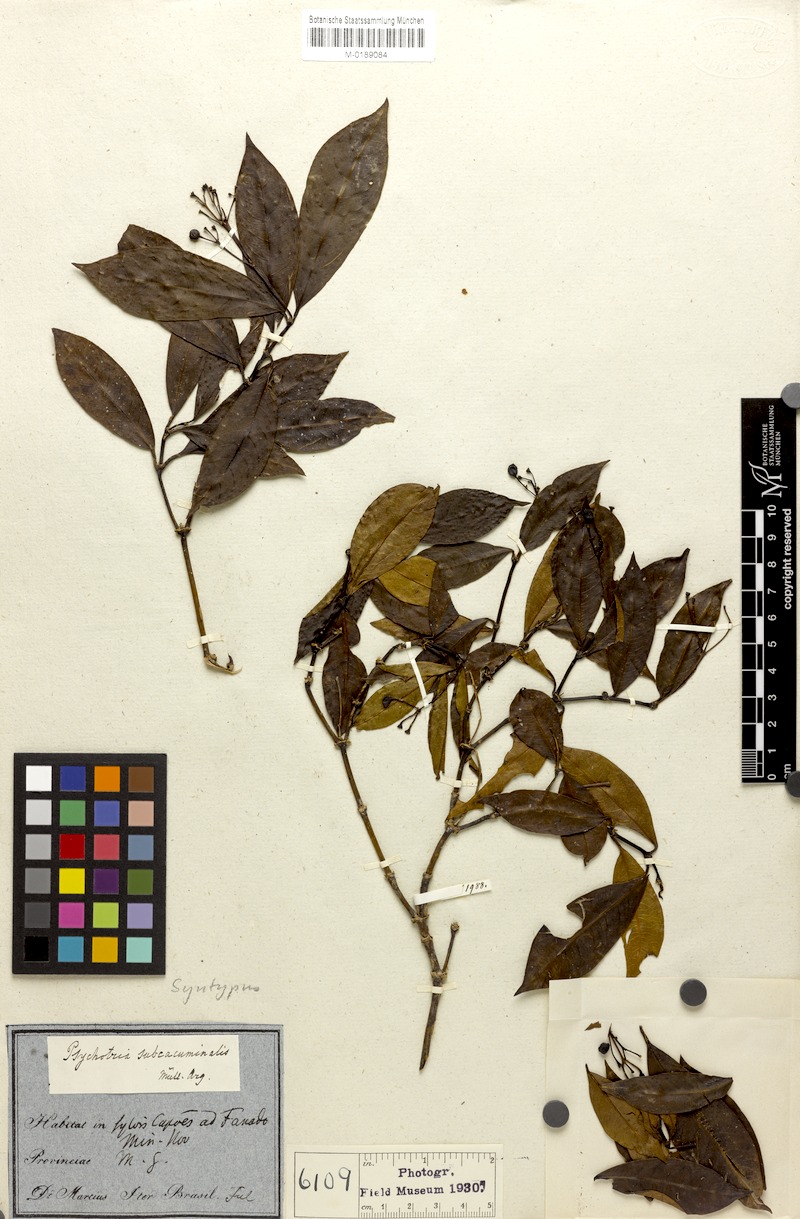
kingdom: Plantae
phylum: Tracheophyta
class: Magnoliopsida
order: Gentianales
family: Rubiaceae
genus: Psychotria
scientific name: Psychotria subcacuminalis
